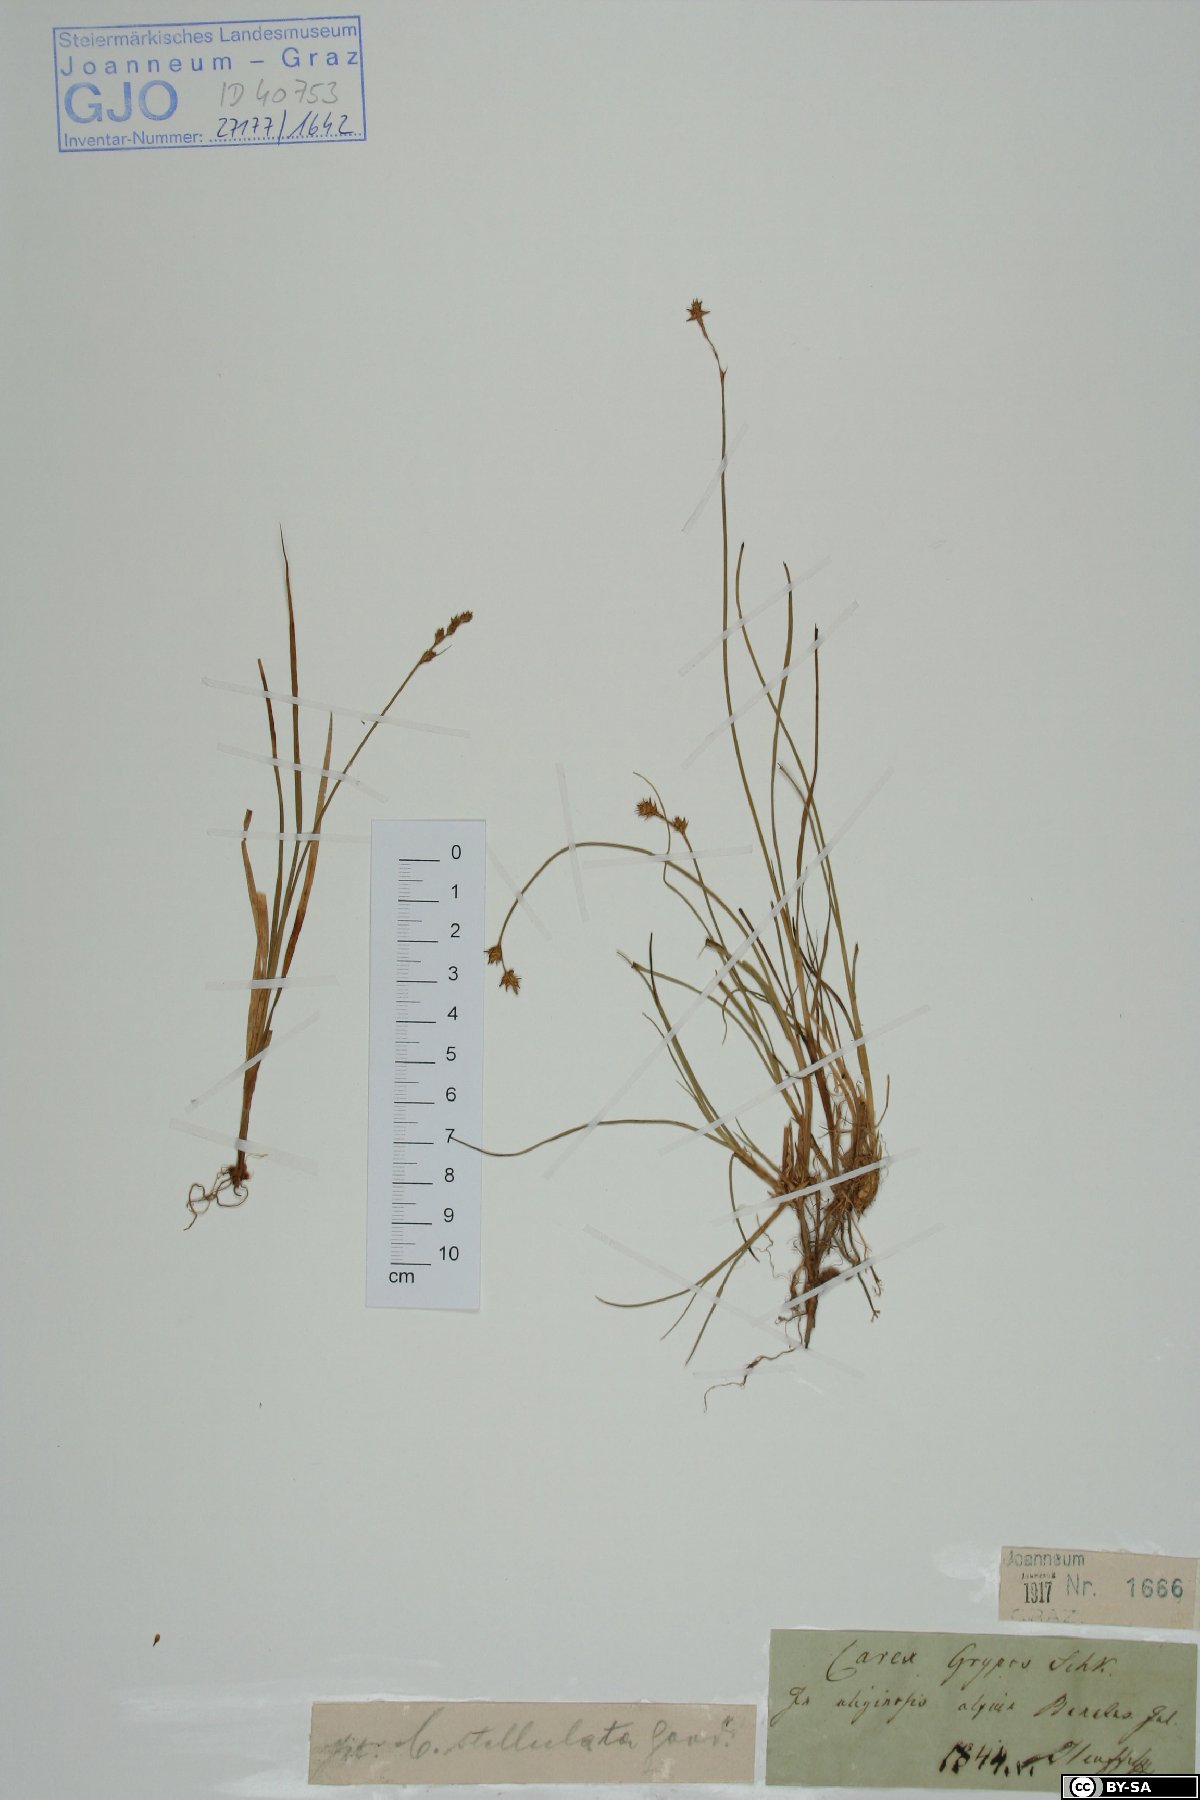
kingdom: Plantae
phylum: Tracheophyta
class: Liliopsida
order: Poales
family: Cyperaceae
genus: Carex
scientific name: Carex echinata
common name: Star sedge
